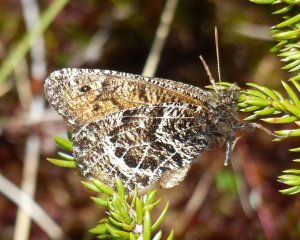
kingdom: Animalia
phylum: Arthropoda
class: Insecta
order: Lepidoptera
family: Nymphalidae
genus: Oeneis
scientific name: Oeneis chryxus
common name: Chryxus Arctic
